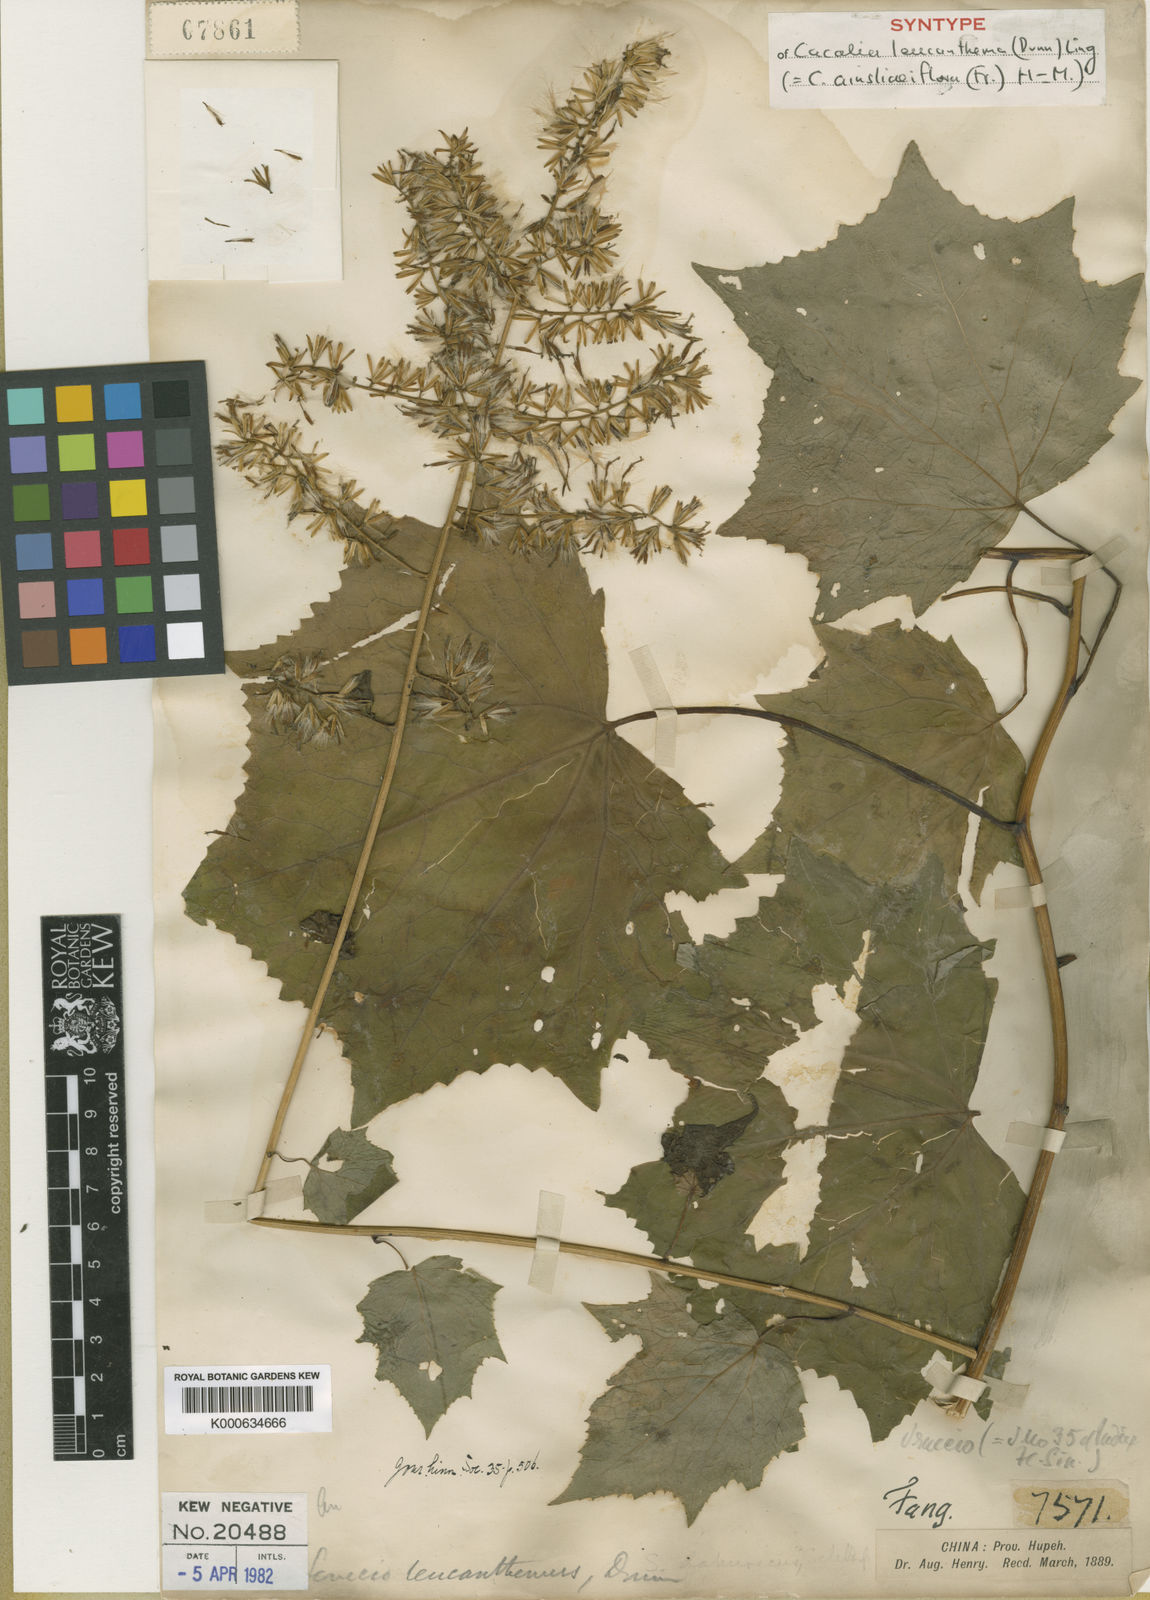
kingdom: Plantae
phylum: Tracheophyta
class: Magnoliopsida
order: Asterales
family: Asteraceae
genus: Parasenecio
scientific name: Parasenecio ainsliaeiflorus
